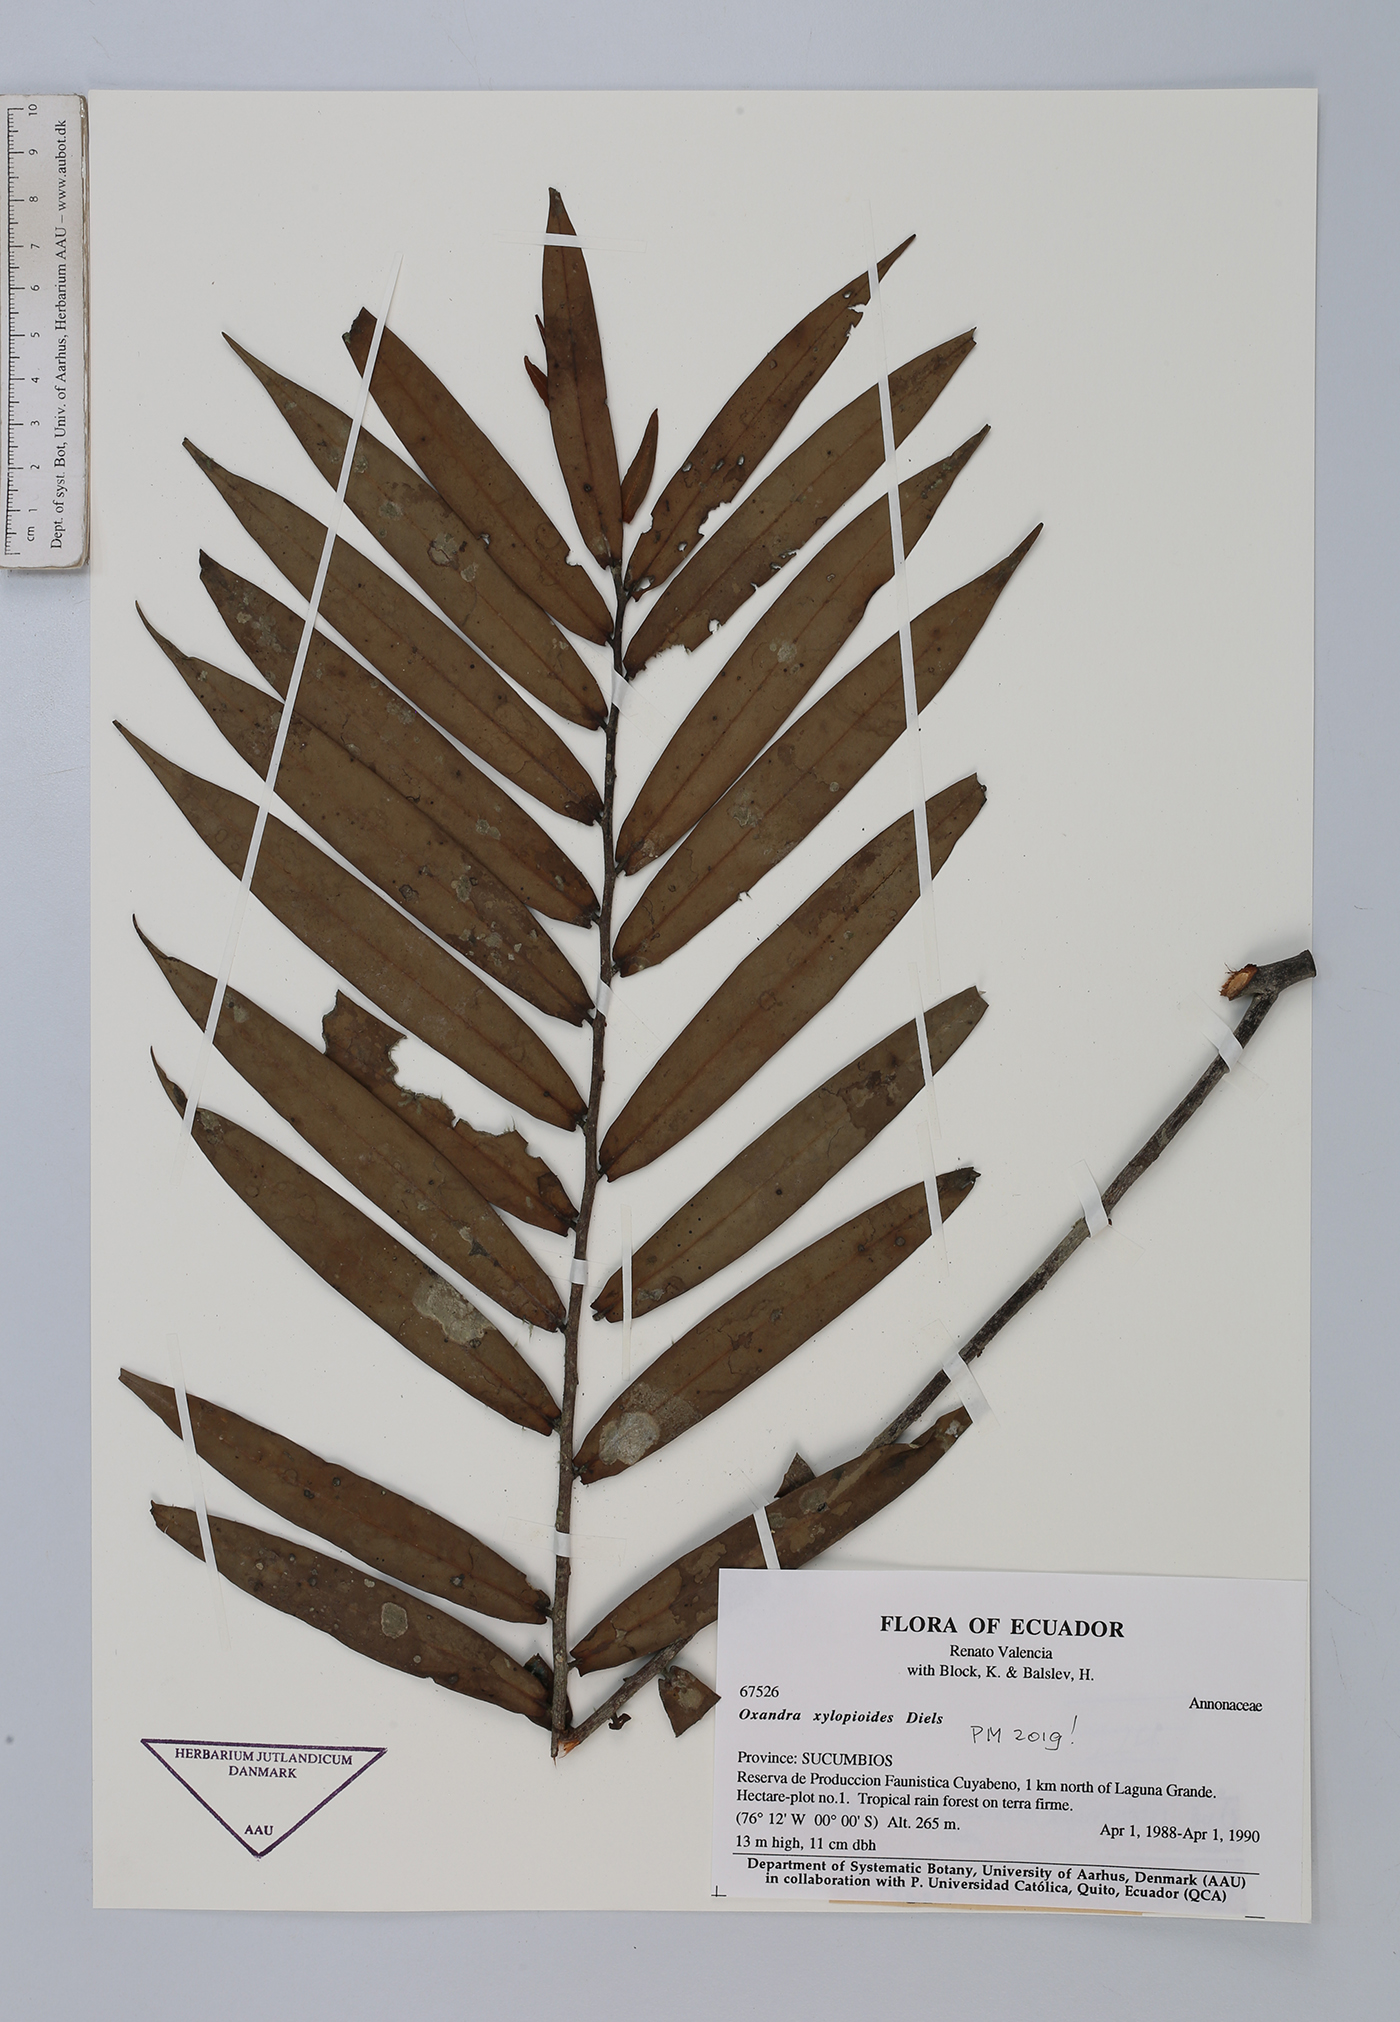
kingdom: Plantae
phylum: Tracheophyta
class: Magnoliopsida
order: Magnoliales
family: Annonaceae
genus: Oxandra
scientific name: Oxandra xylopioides
